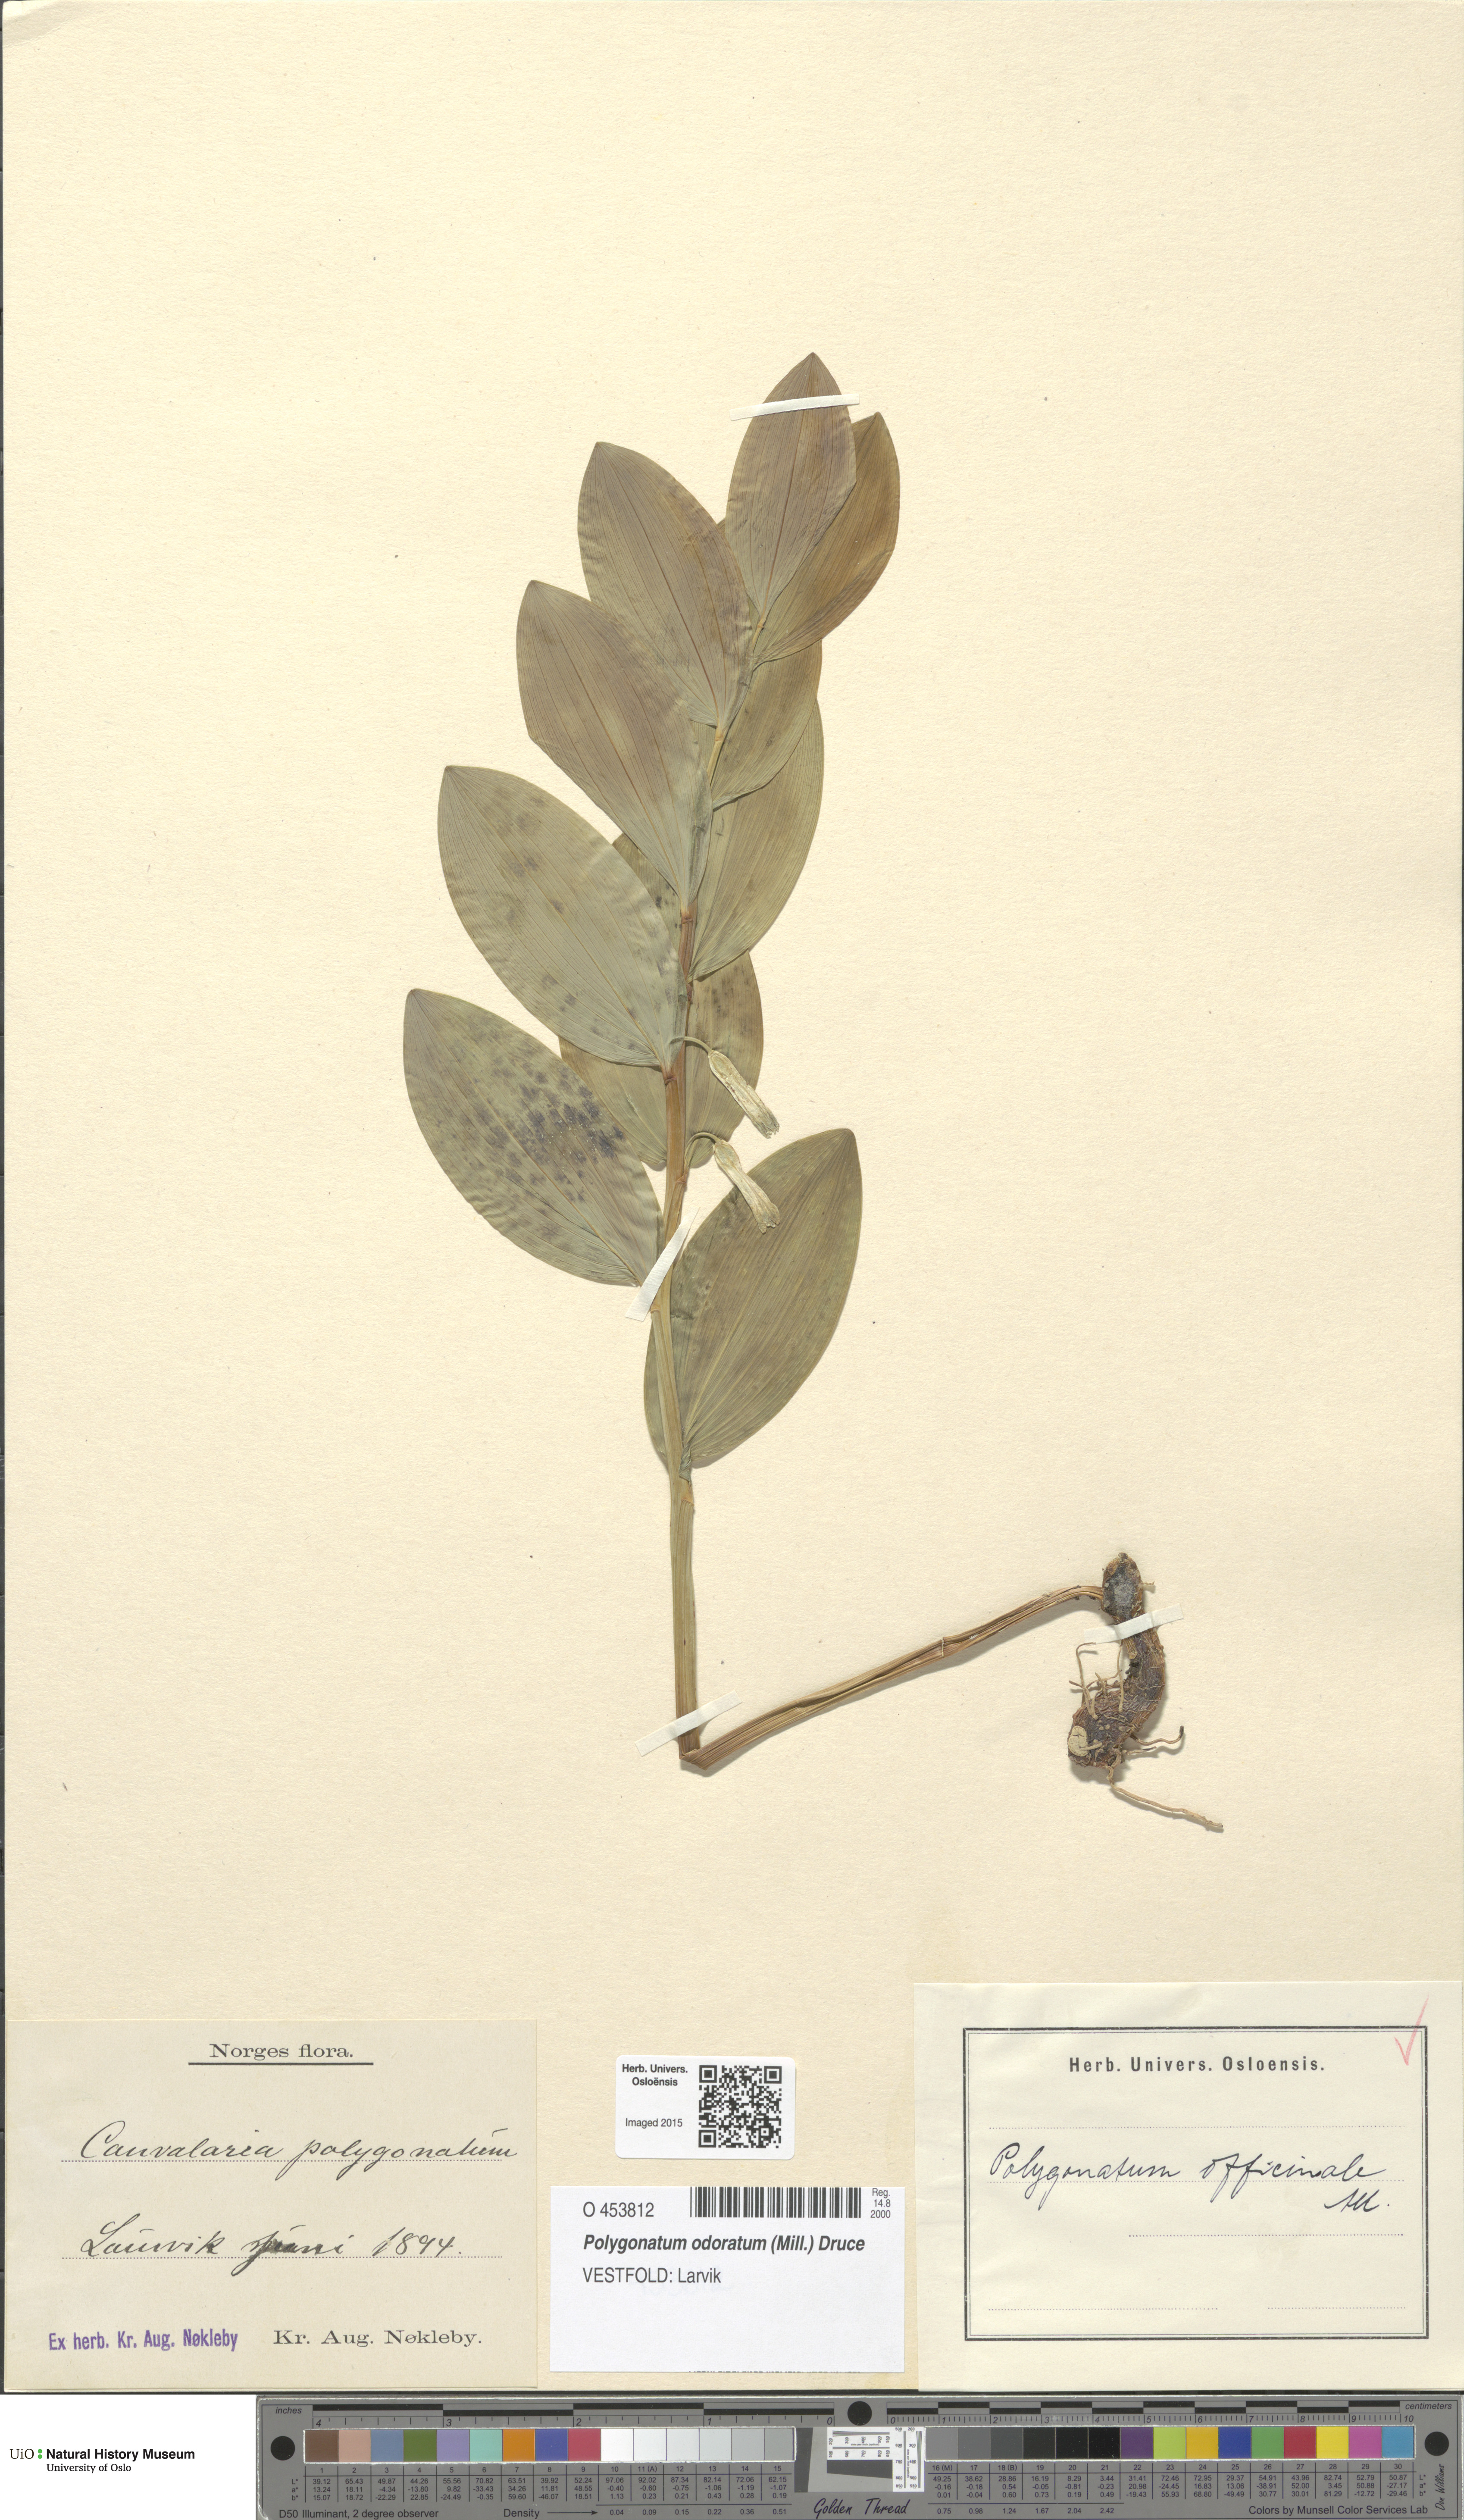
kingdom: Plantae
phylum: Tracheophyta
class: Liliopsida
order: Asparagales
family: Asparagaceae
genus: Polygonatum
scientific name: Polygonatum odoratum
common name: Angular solomon's-seal
